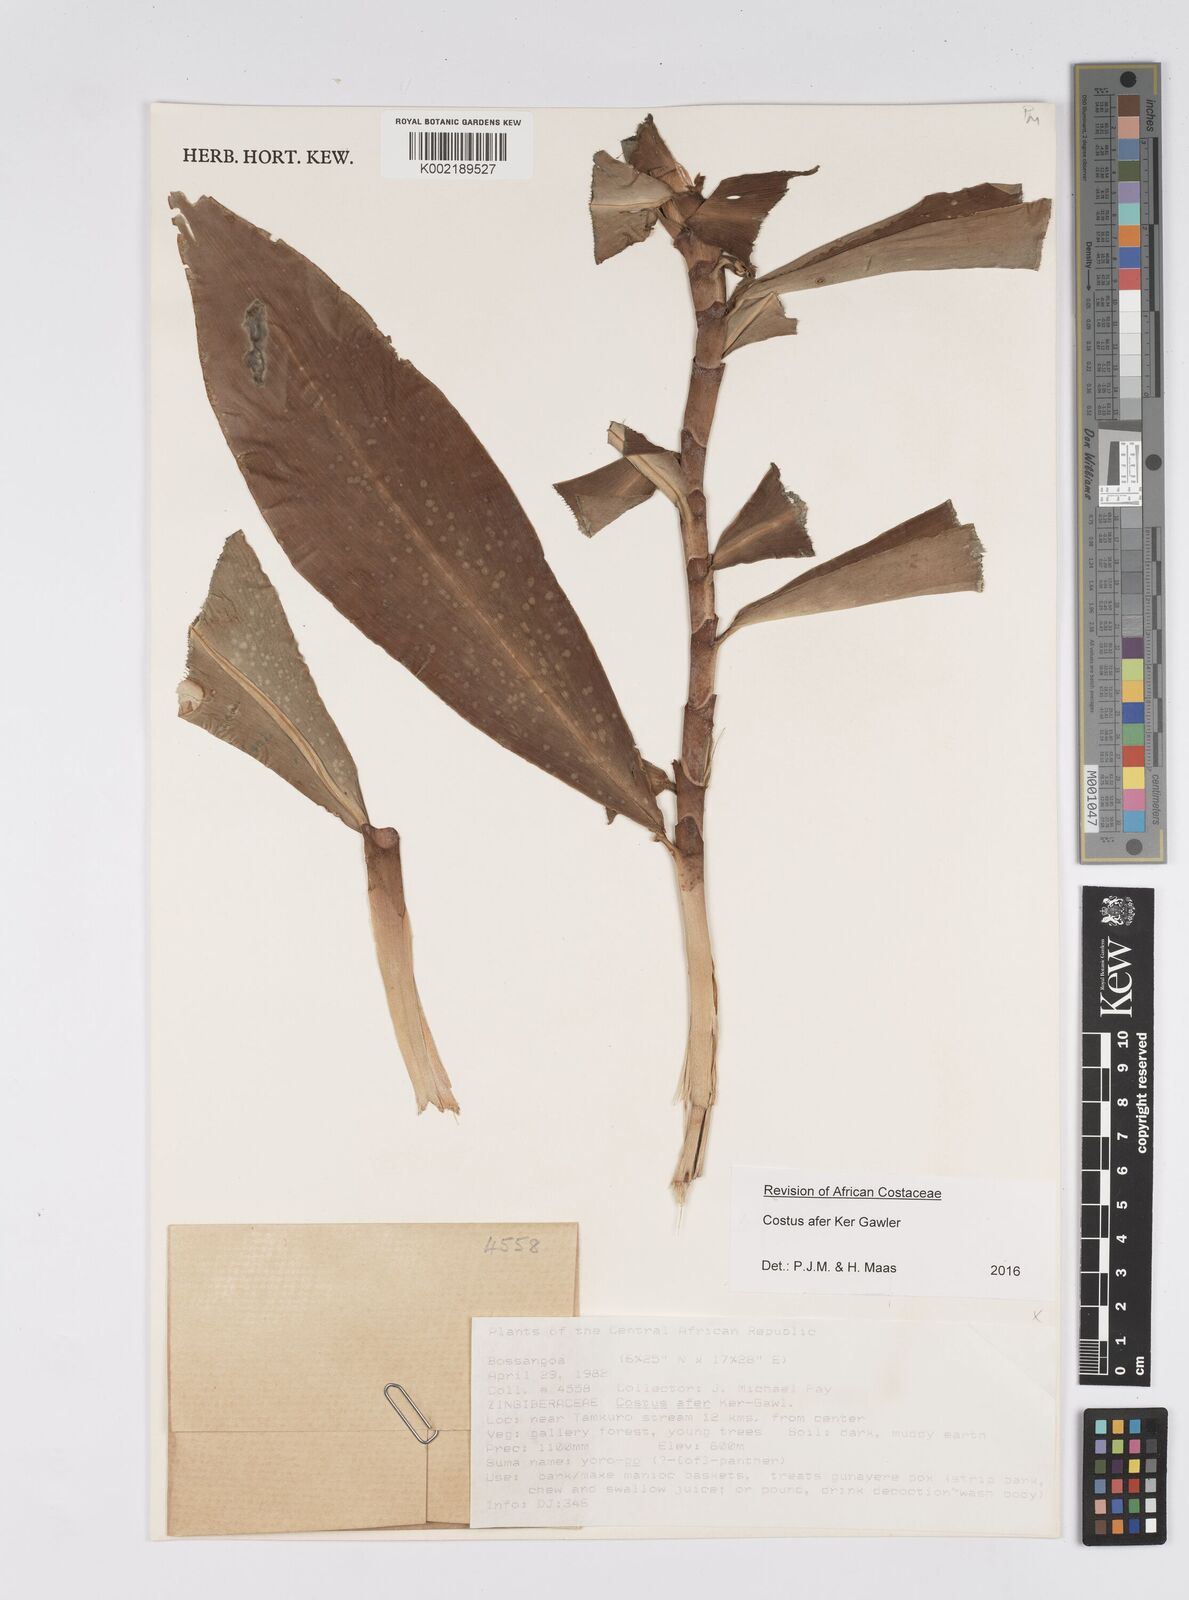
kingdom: Plantae
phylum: Tracheophyta
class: Liliopsida
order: Zingiberales
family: Costaceae
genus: Costus
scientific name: Costus afer
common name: Spiral-ginger
